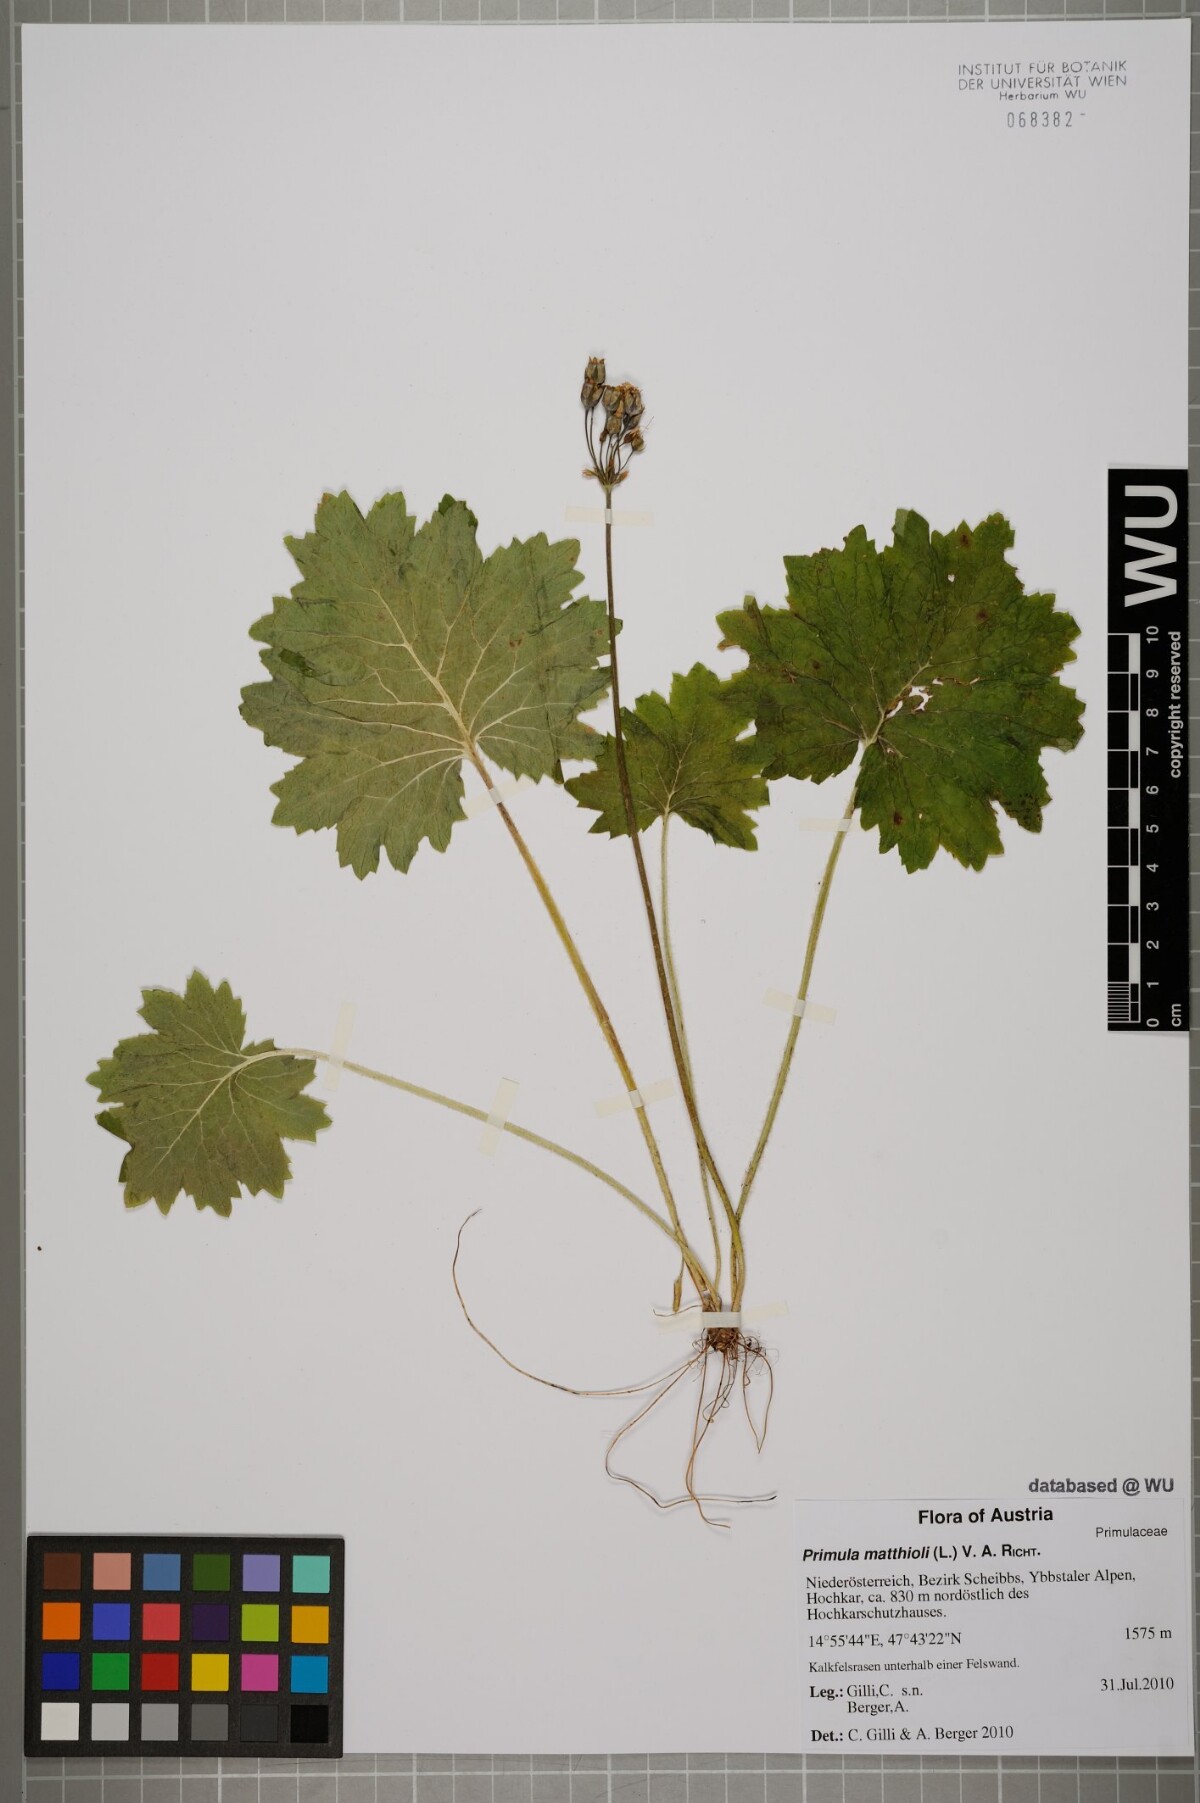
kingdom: Plantae
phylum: Tracheophyta
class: Magnoliopsida
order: Ericales
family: Primulaceae
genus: Primula
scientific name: Primula matthioli
